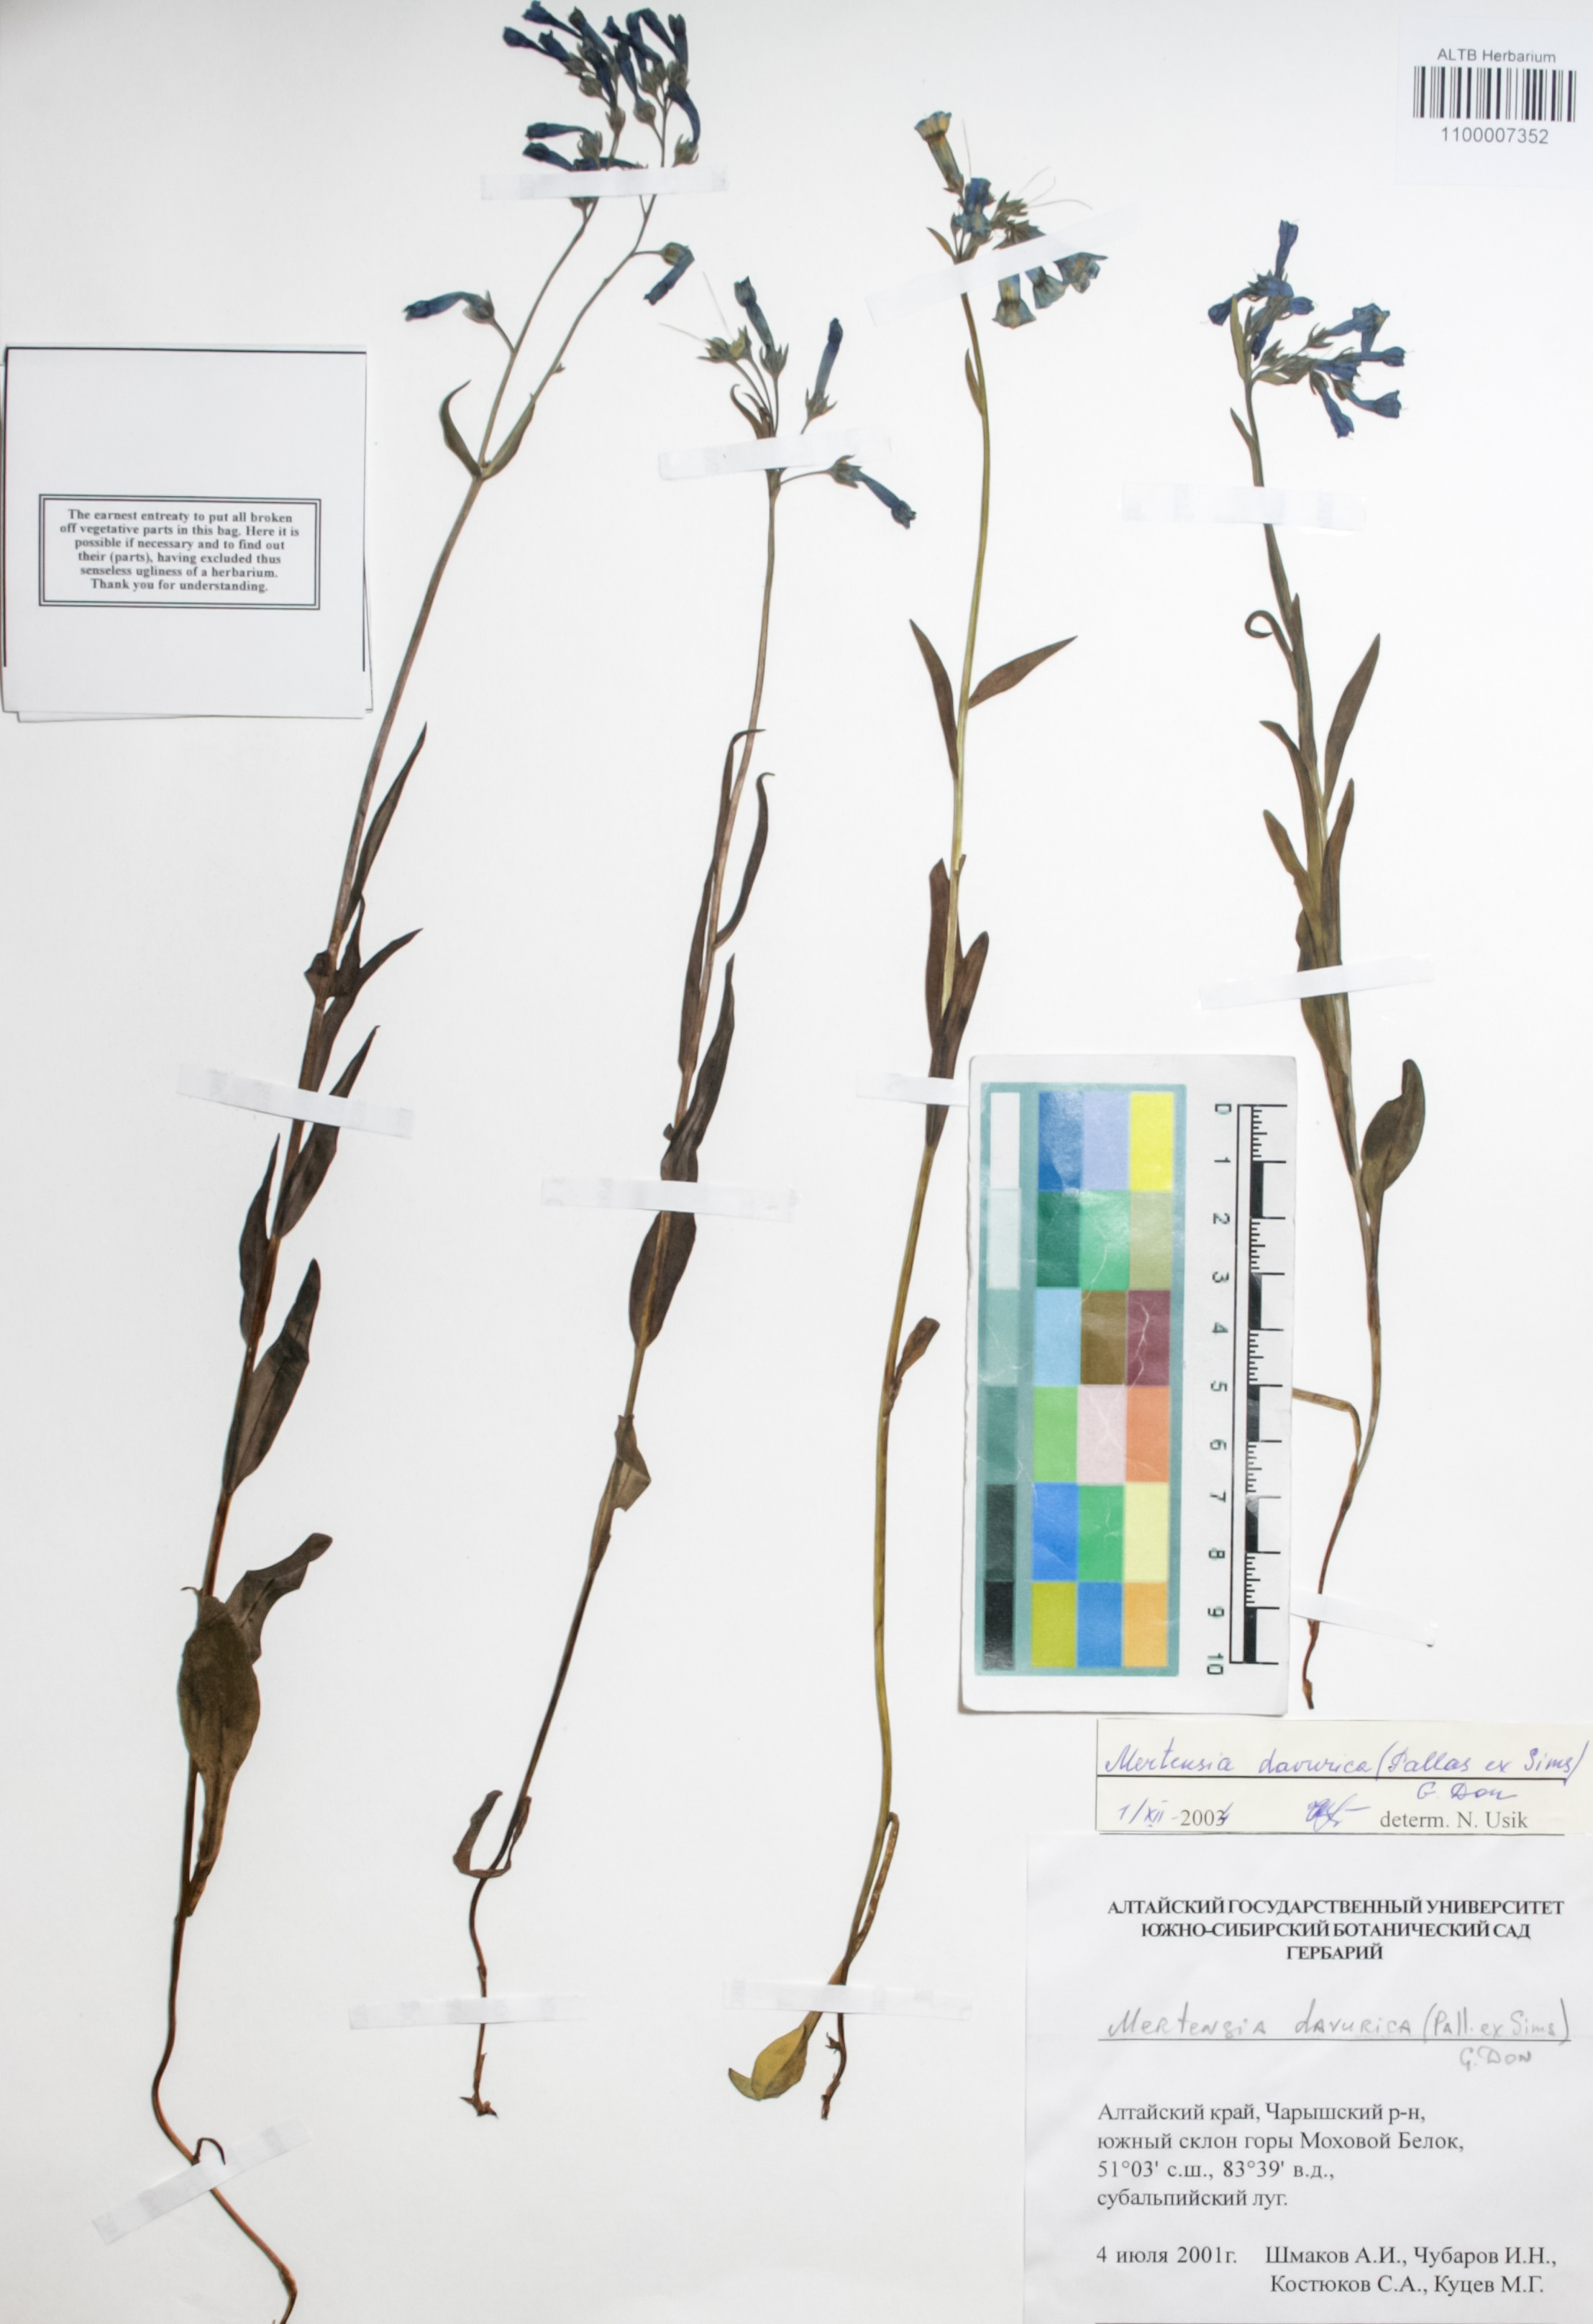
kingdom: Plantae
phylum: Tracheophyta
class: Magnoliopsida
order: Boraginales
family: Boraginaceae
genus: Mertensia
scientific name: Mertensia davurica
